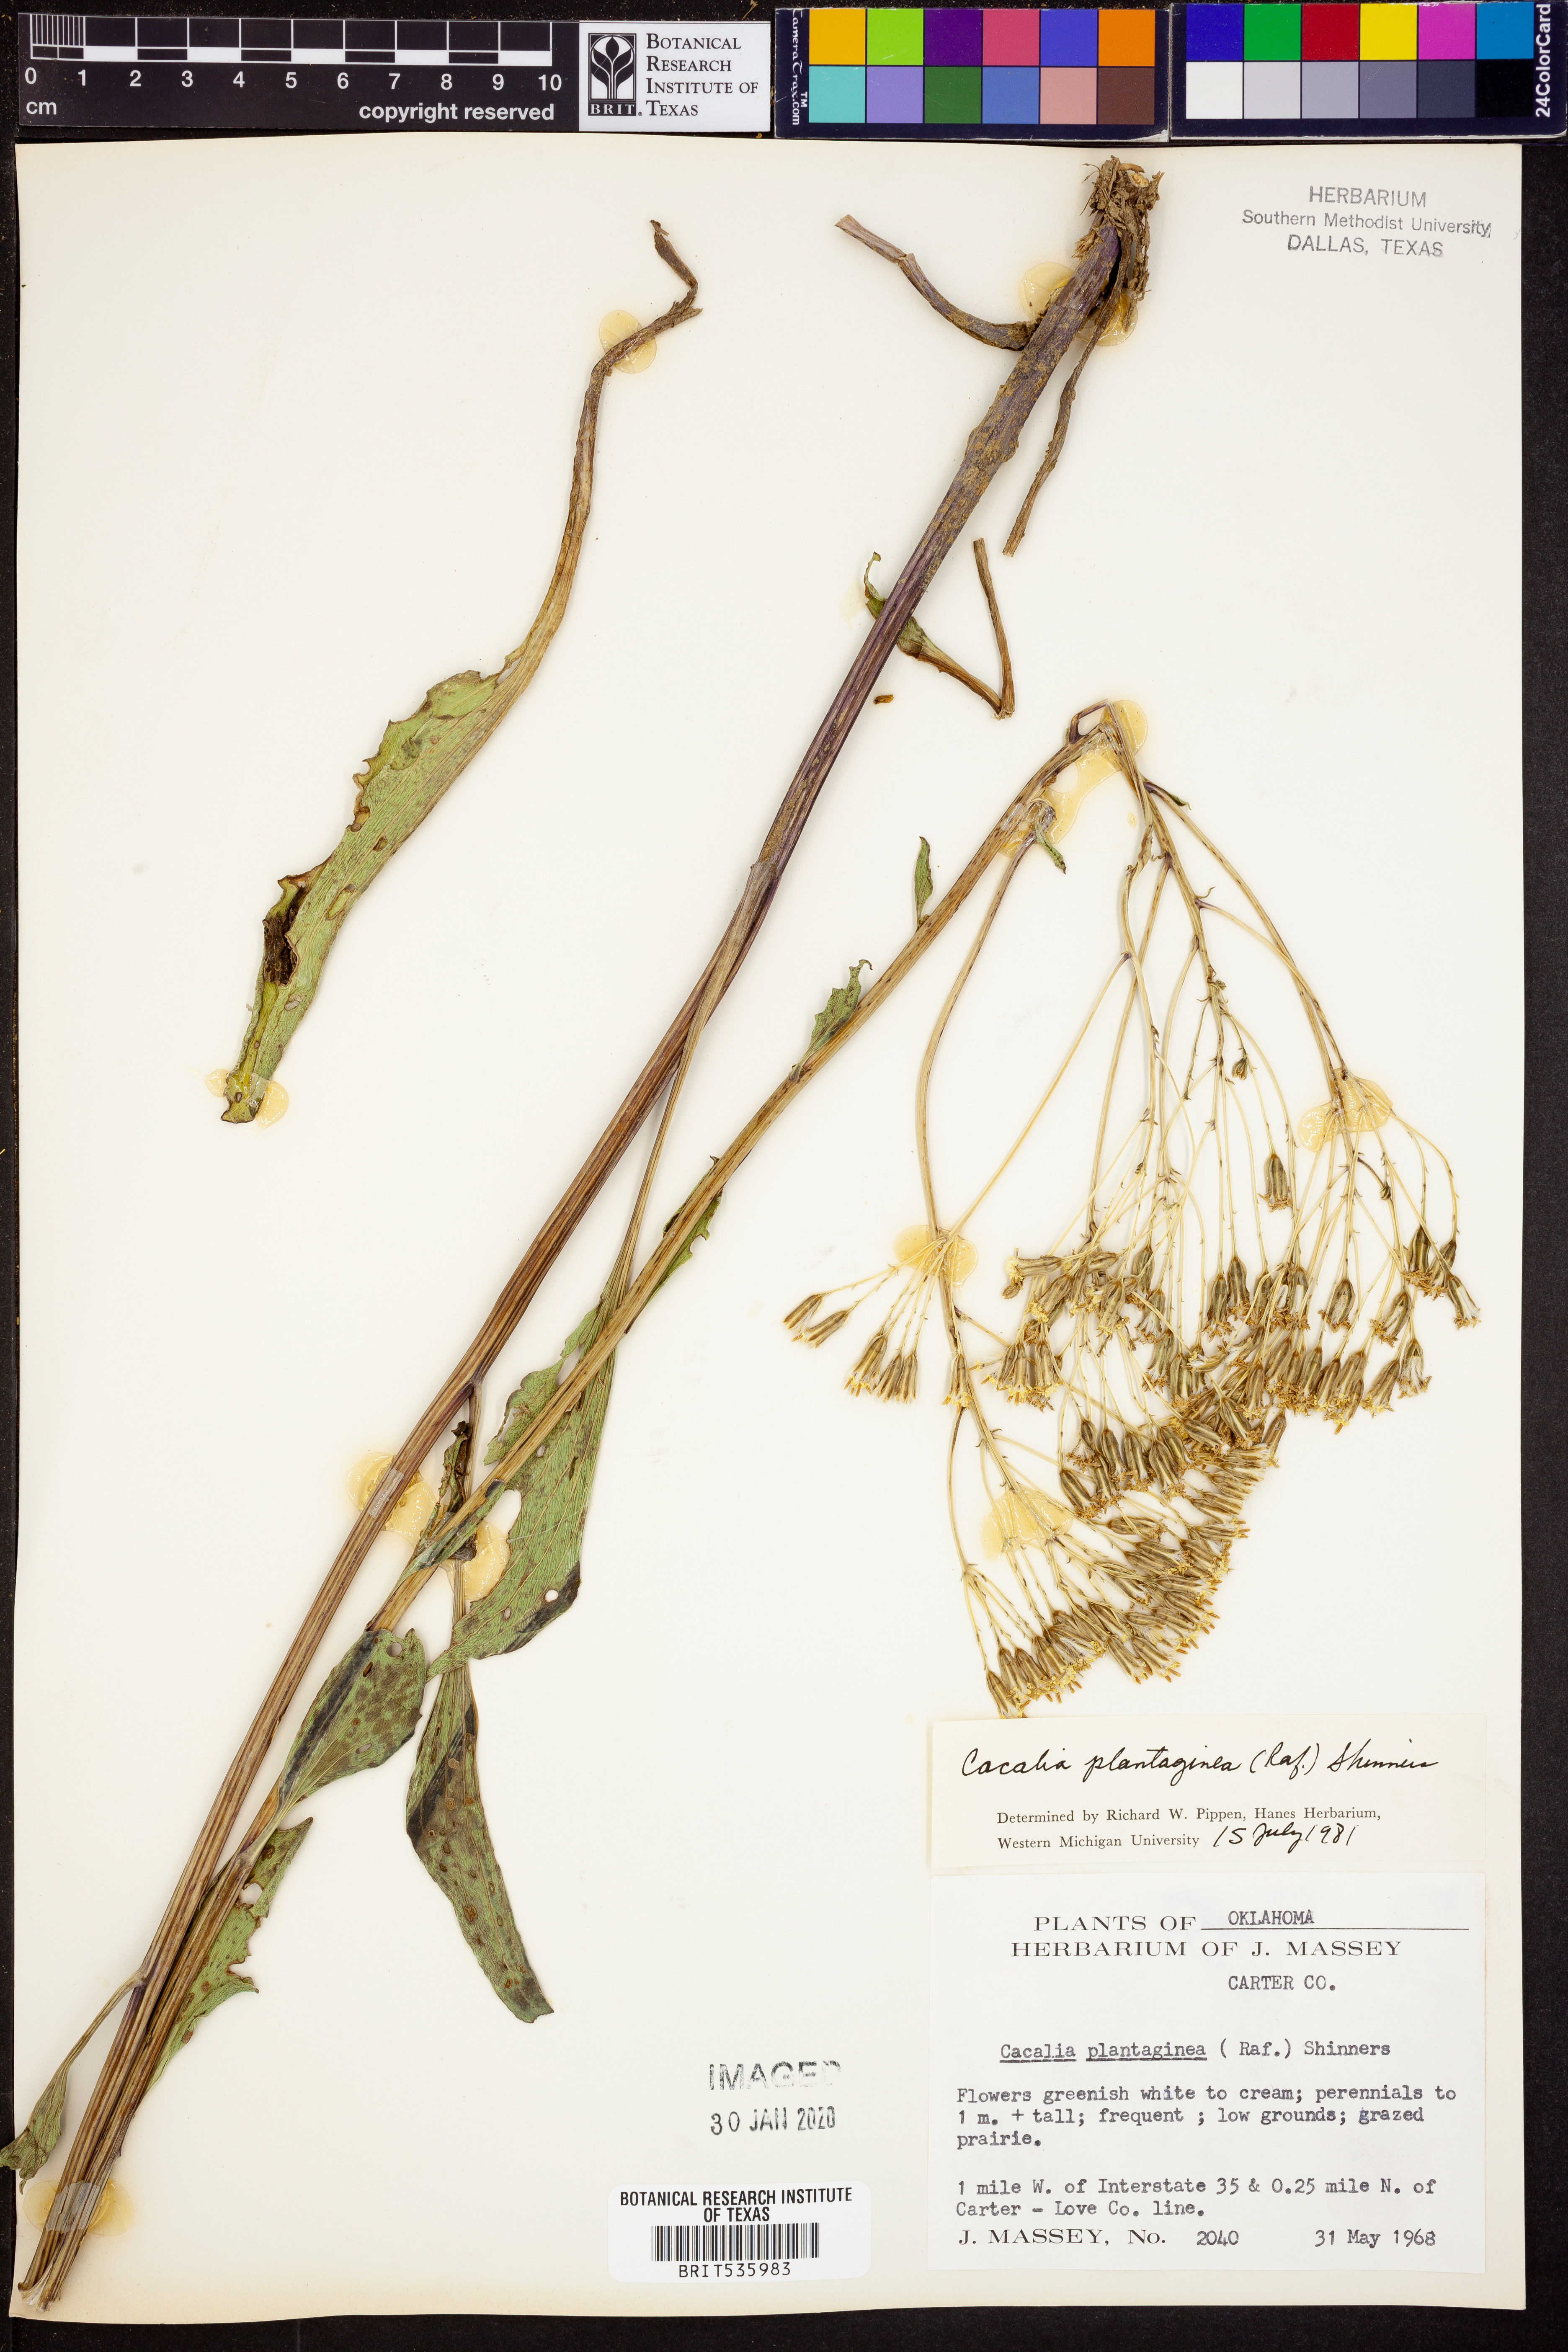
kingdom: Plantae
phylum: Tracheophyta
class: Magnoliopsida
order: Asterales
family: Asteraceae
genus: Arnoglossum
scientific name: Arnoglossum plantagineum
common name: Groove-stemmed indian-plantain
